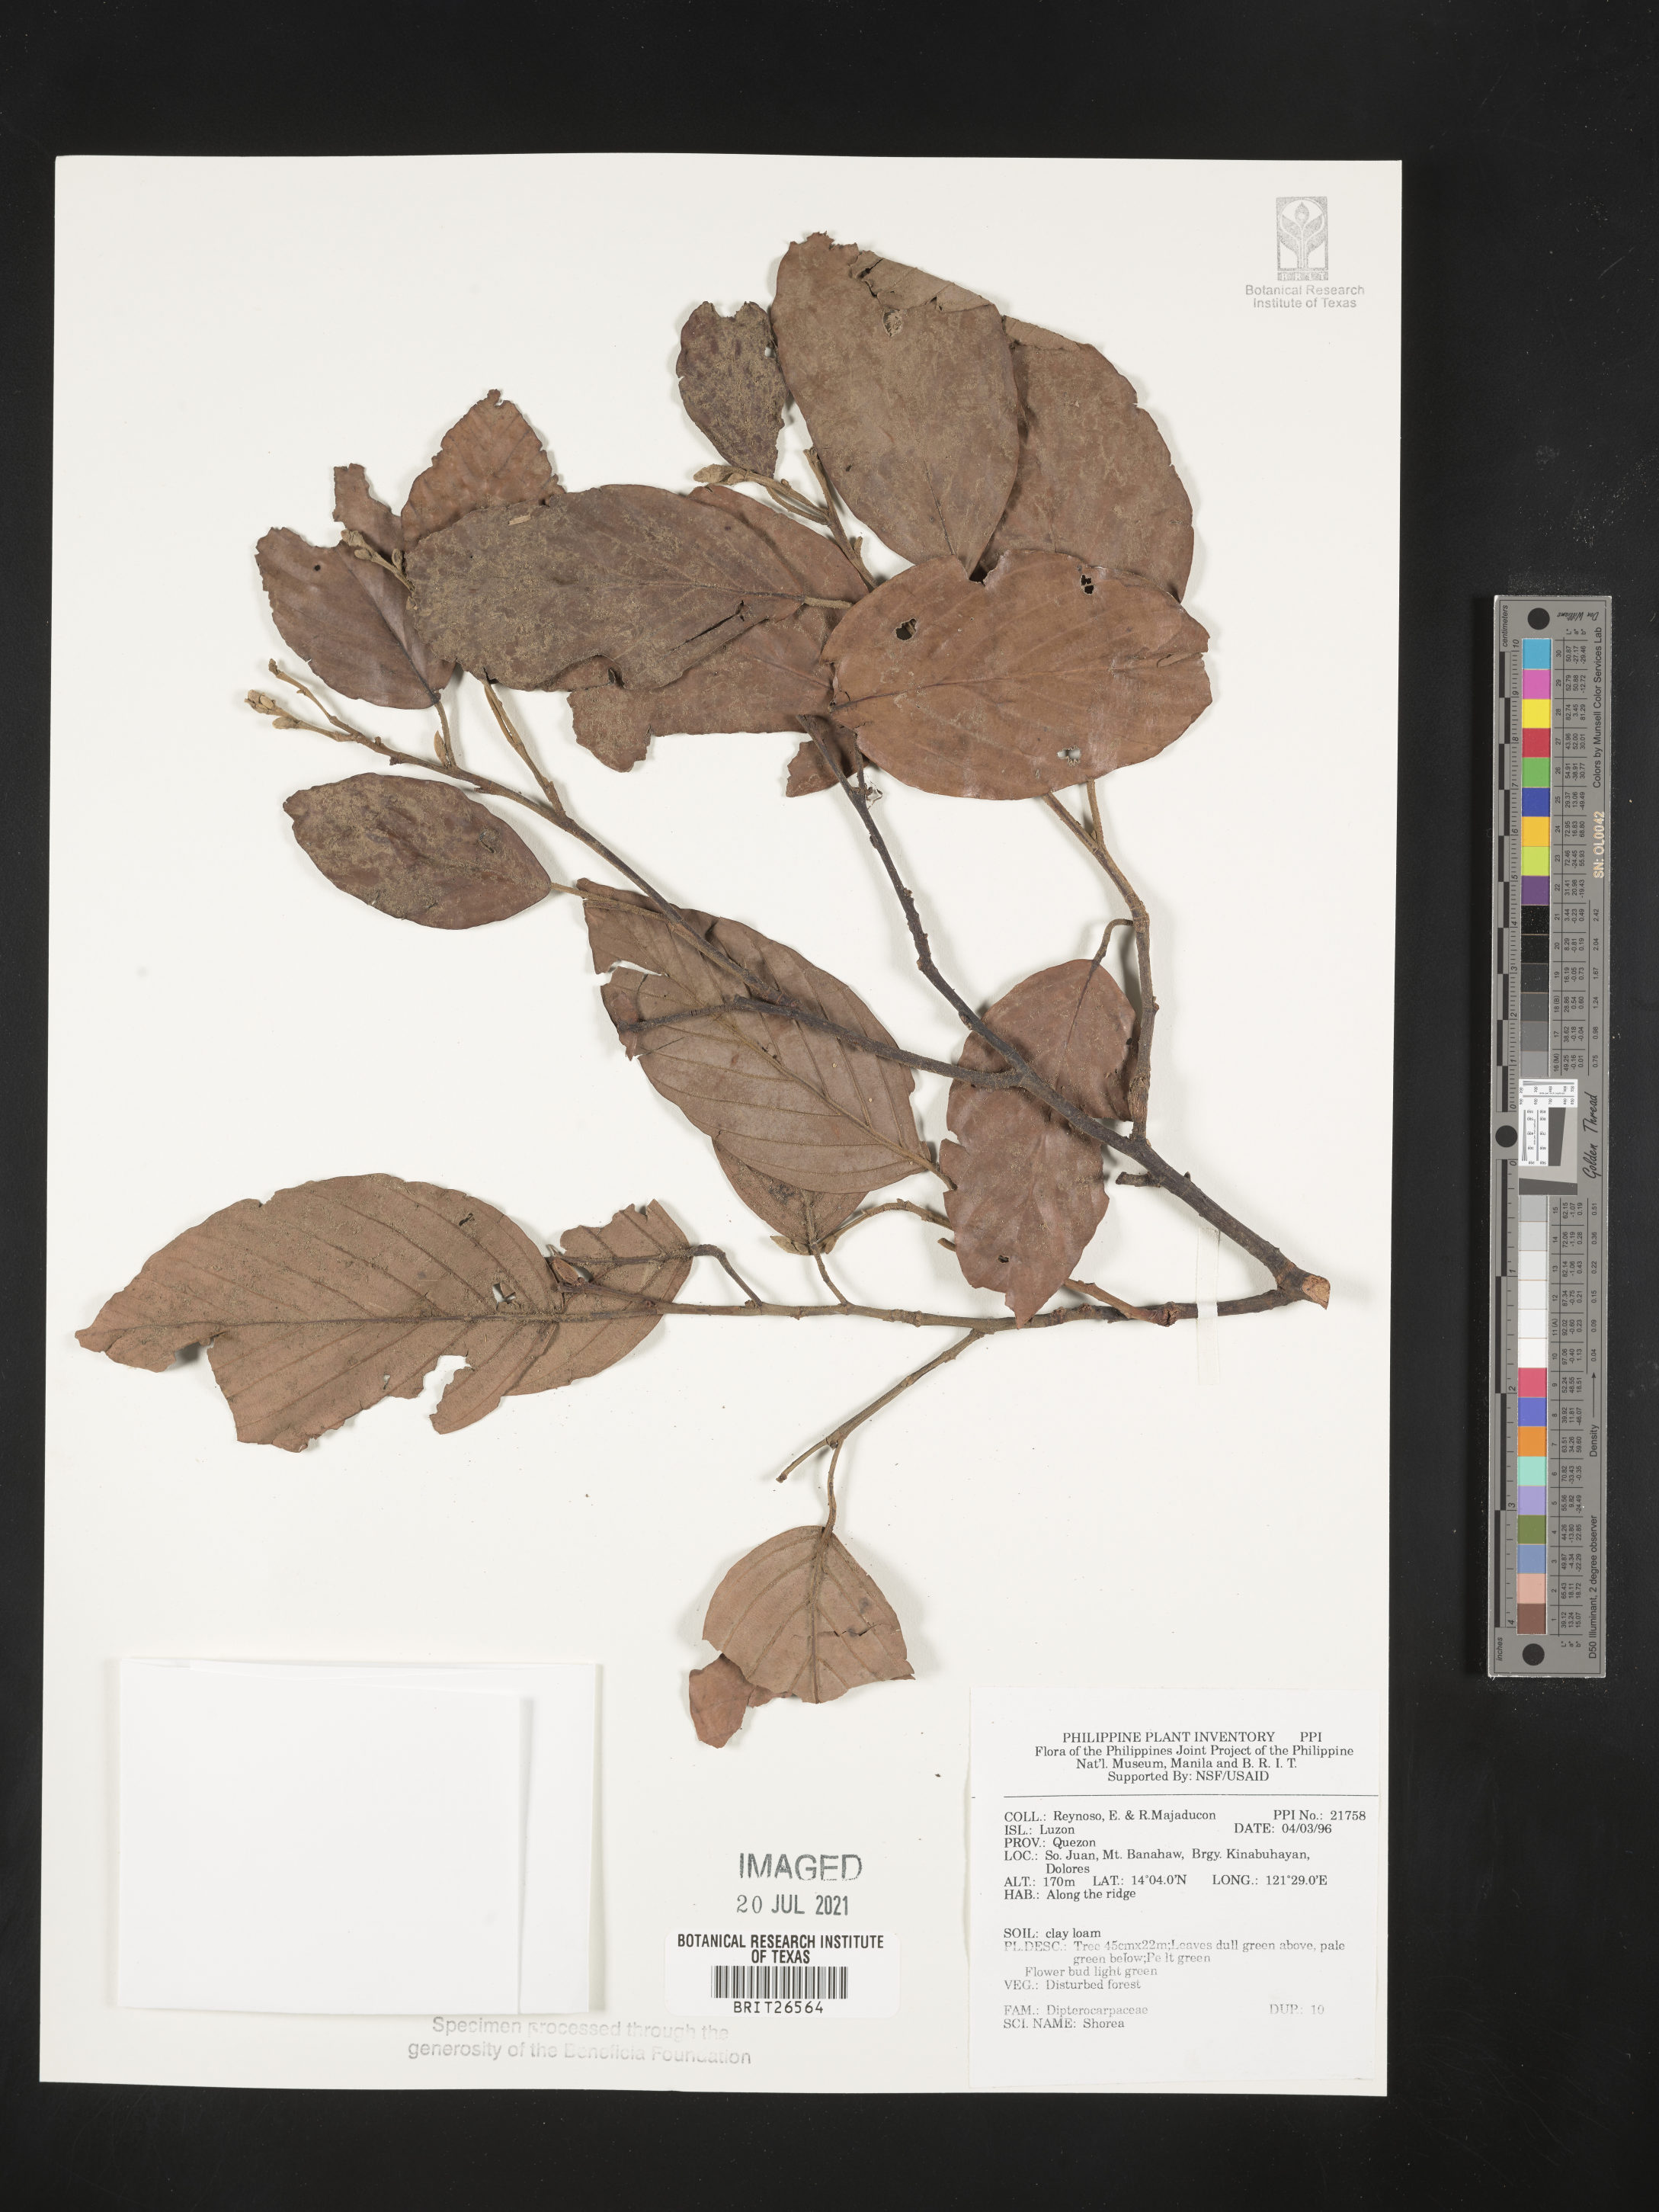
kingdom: Plantae
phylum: Tracheophyta
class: Magnoliopsida
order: Malvales
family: Dipterocarpaceae
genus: Shorea
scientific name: Shorea
